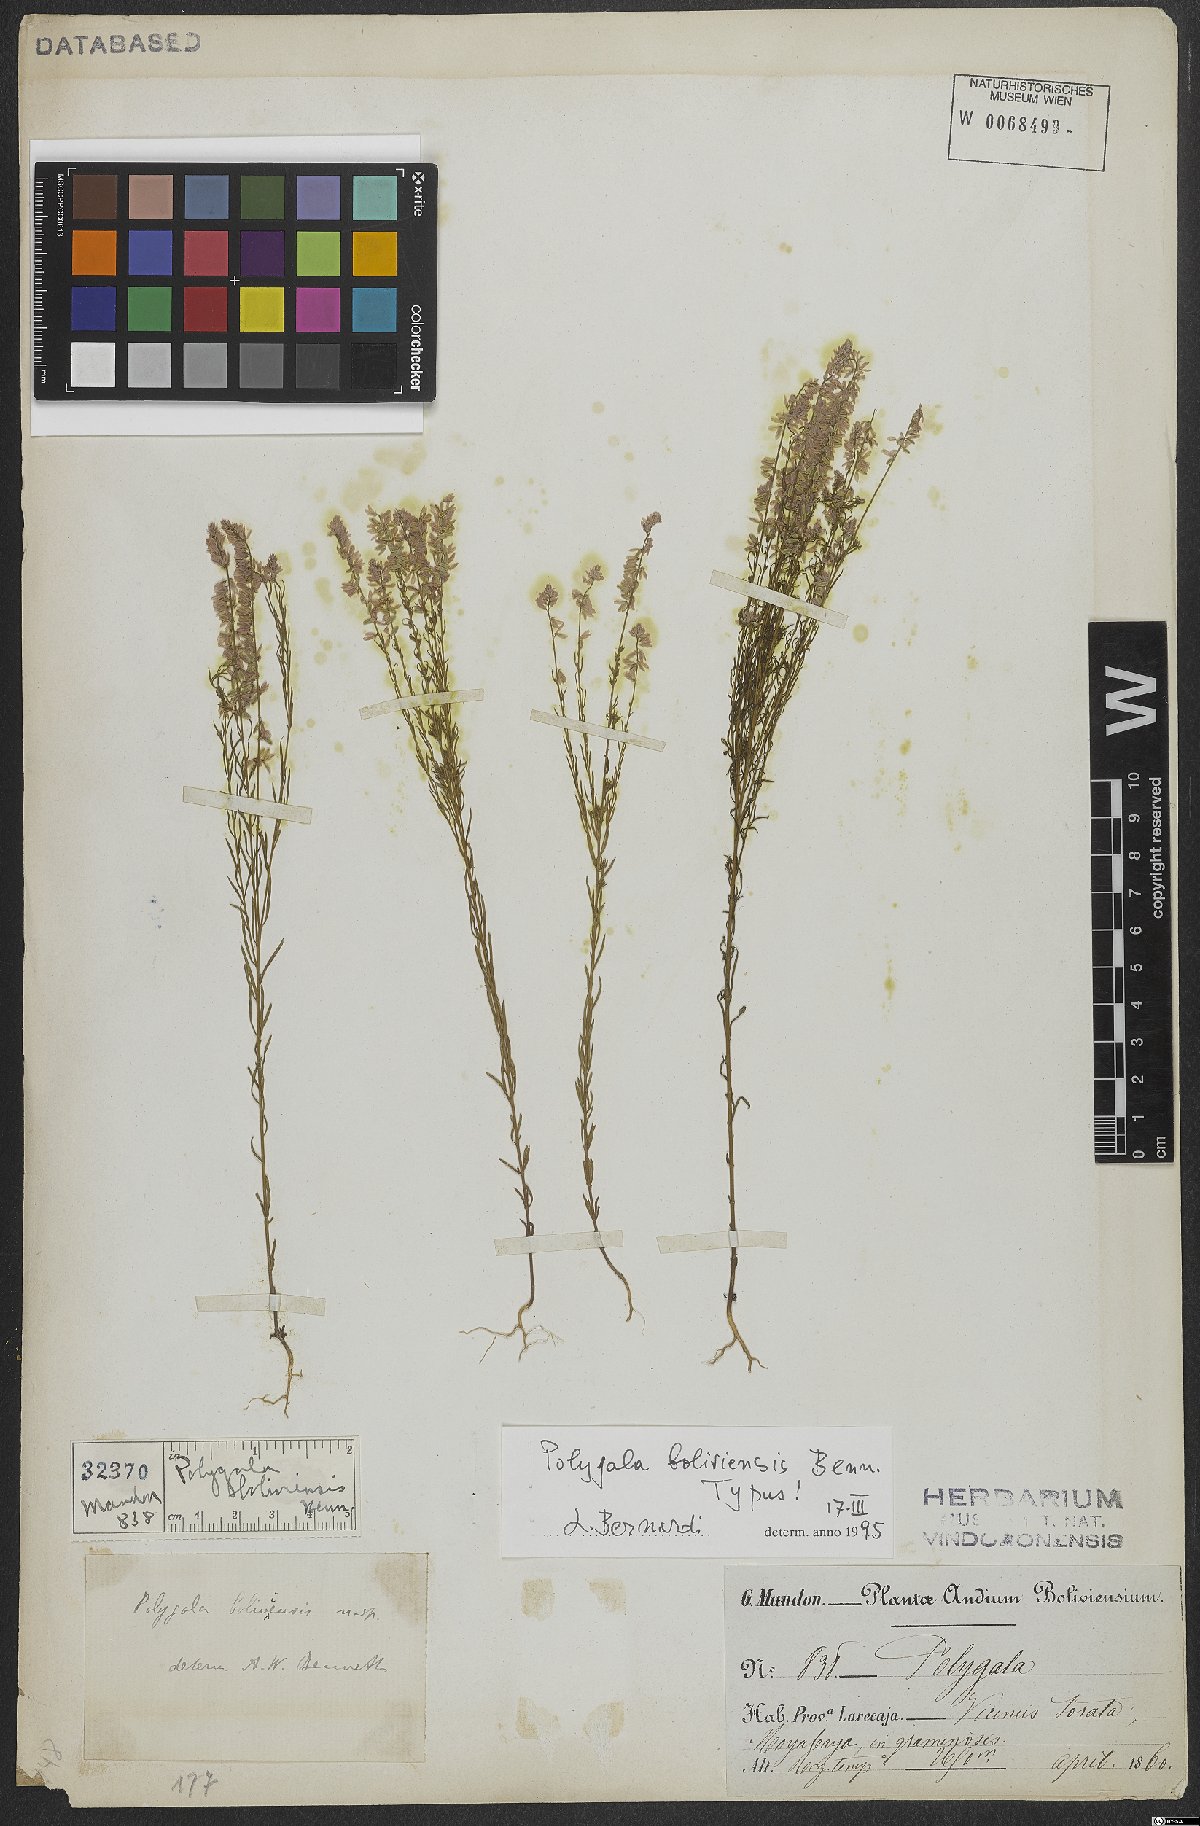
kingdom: Plantae
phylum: Tracheophyta
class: Magnoliopsida
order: Fabales
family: Polygalaceae
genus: Polygala
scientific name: Polygala boliviensis
